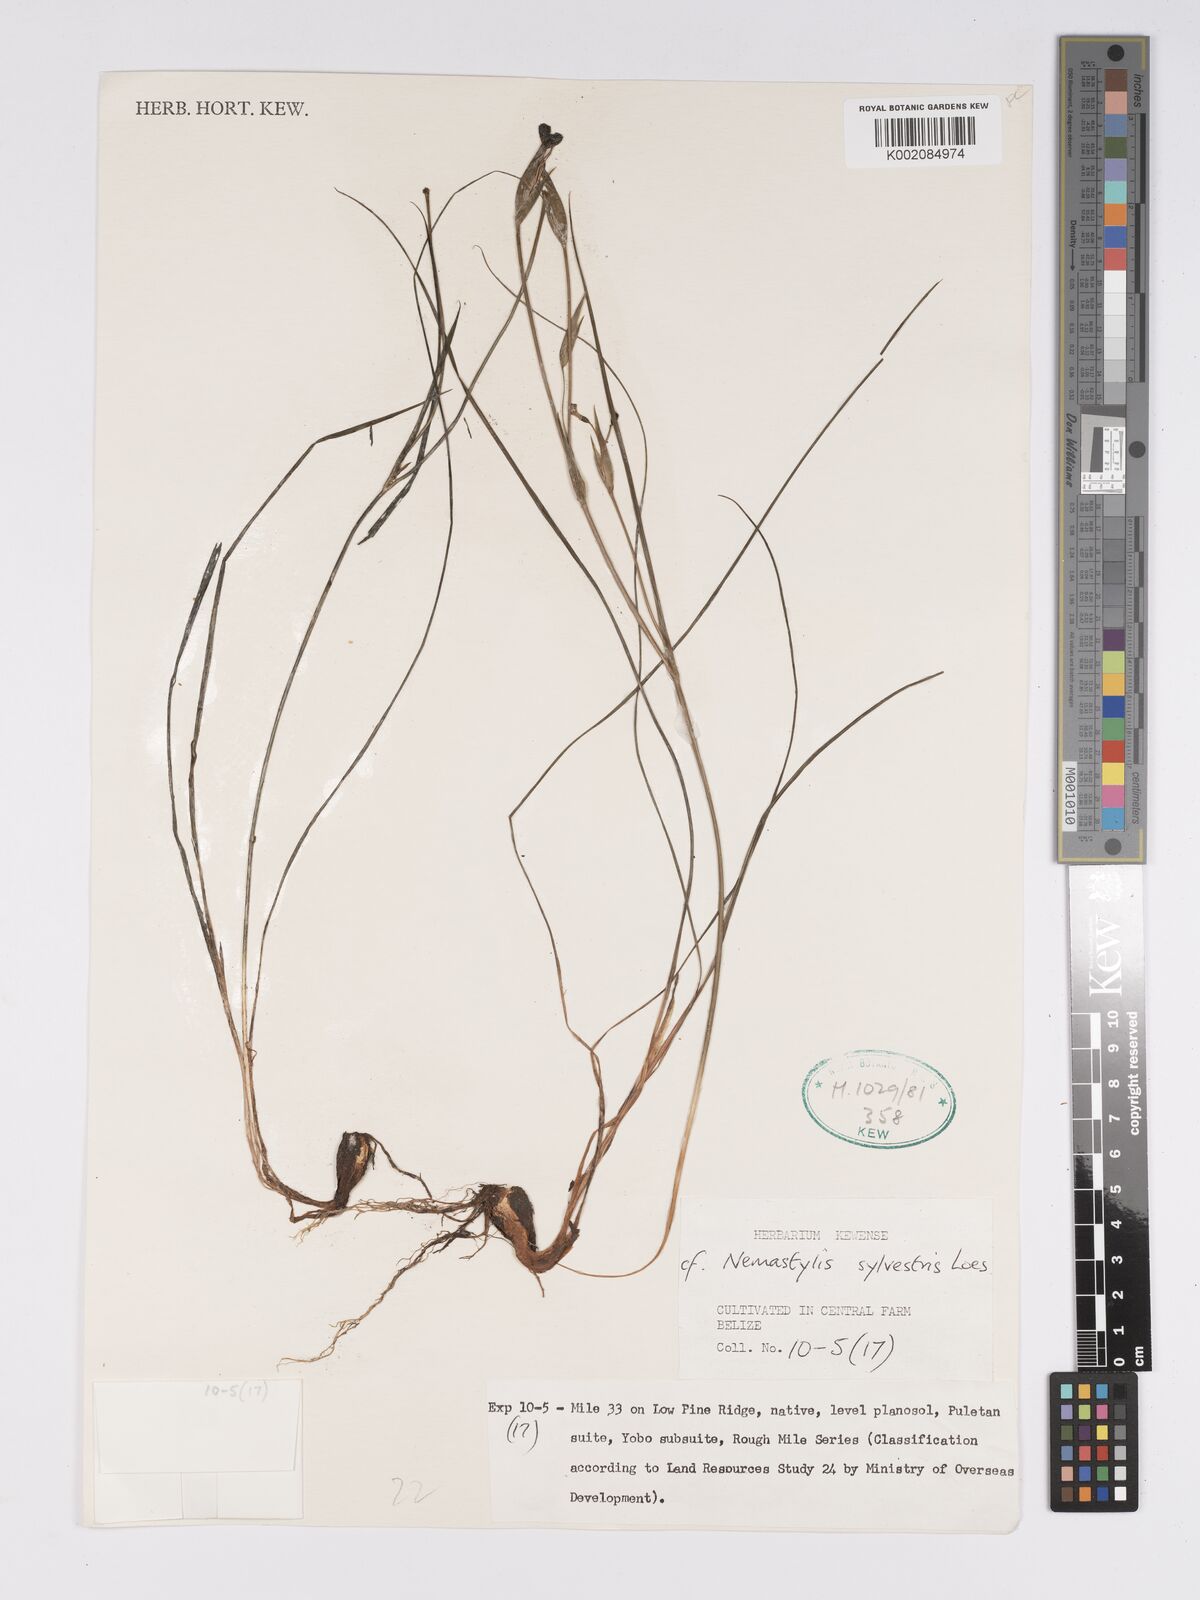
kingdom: Plantae
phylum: Tracheophyta
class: Liliopsida
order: Asparagales
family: Iridaceae
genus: Nemastylis
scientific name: Nemastylis
